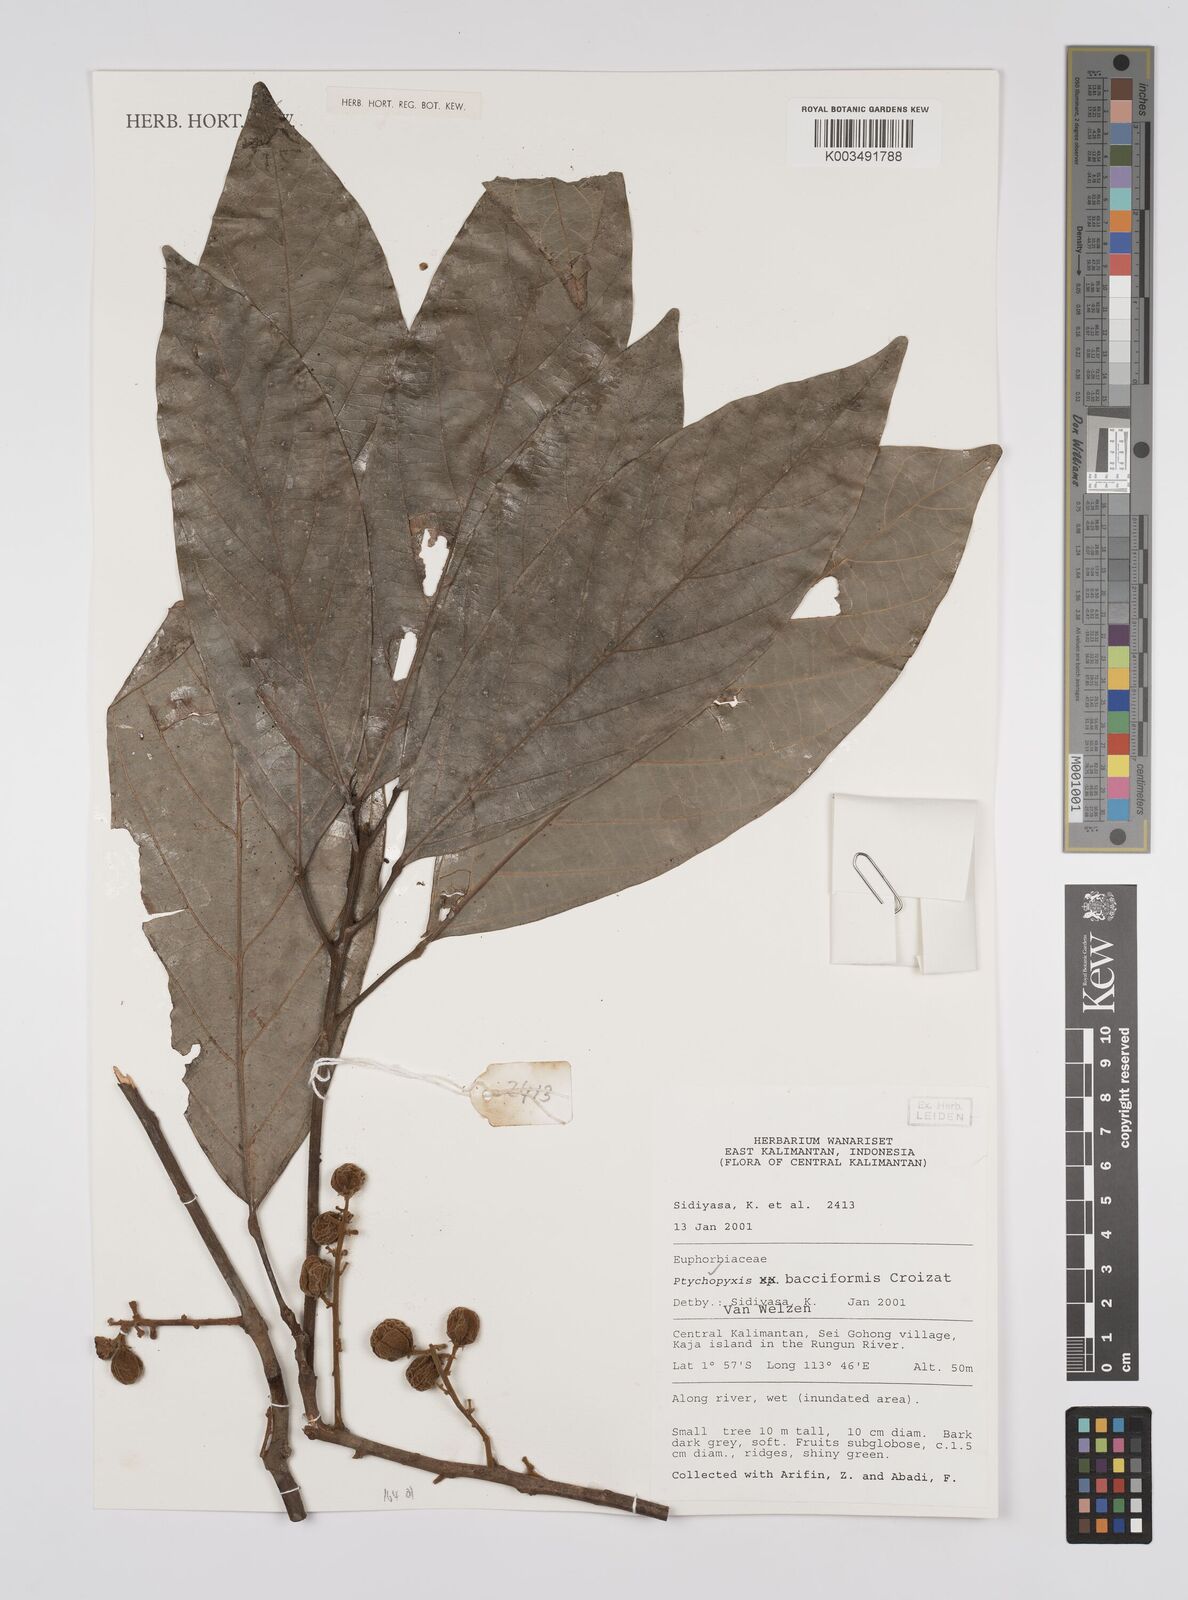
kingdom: Plantae
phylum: Tracheophyta
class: Magnoliopsida
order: Malpighiales
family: Euphorbiaceae
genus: Ptychopyxis
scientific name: Ptychopyxis bacciformis
